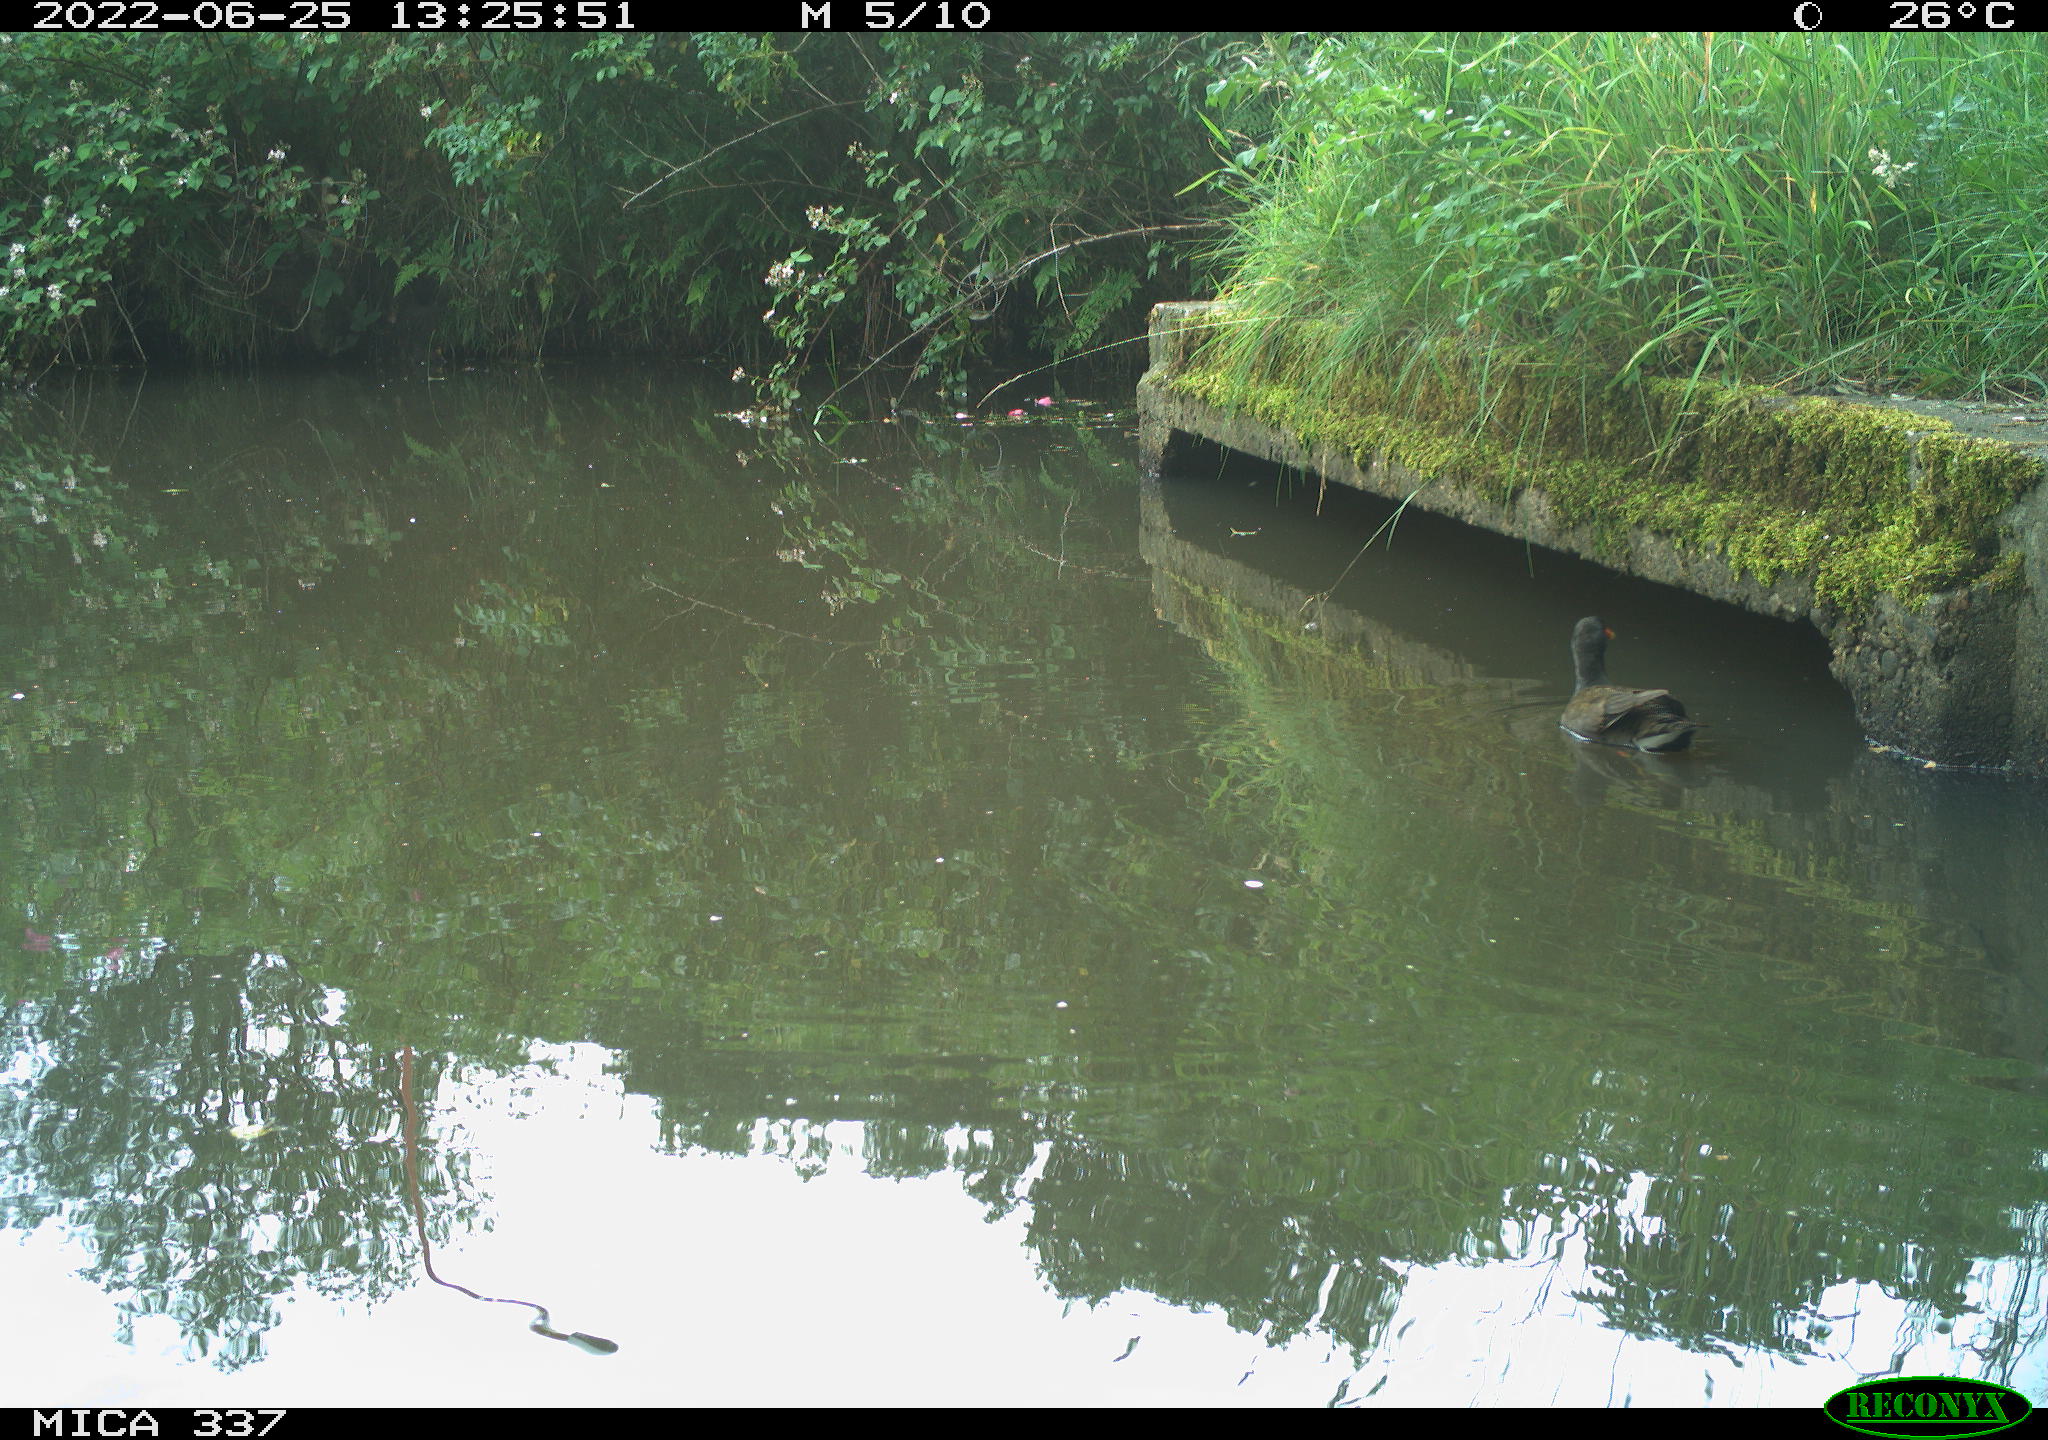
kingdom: Animalia
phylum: Chordata
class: Aves
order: Gruiformes
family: Rallidae
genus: Gallinula
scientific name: Gallinula chloropus
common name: Common moorhen
